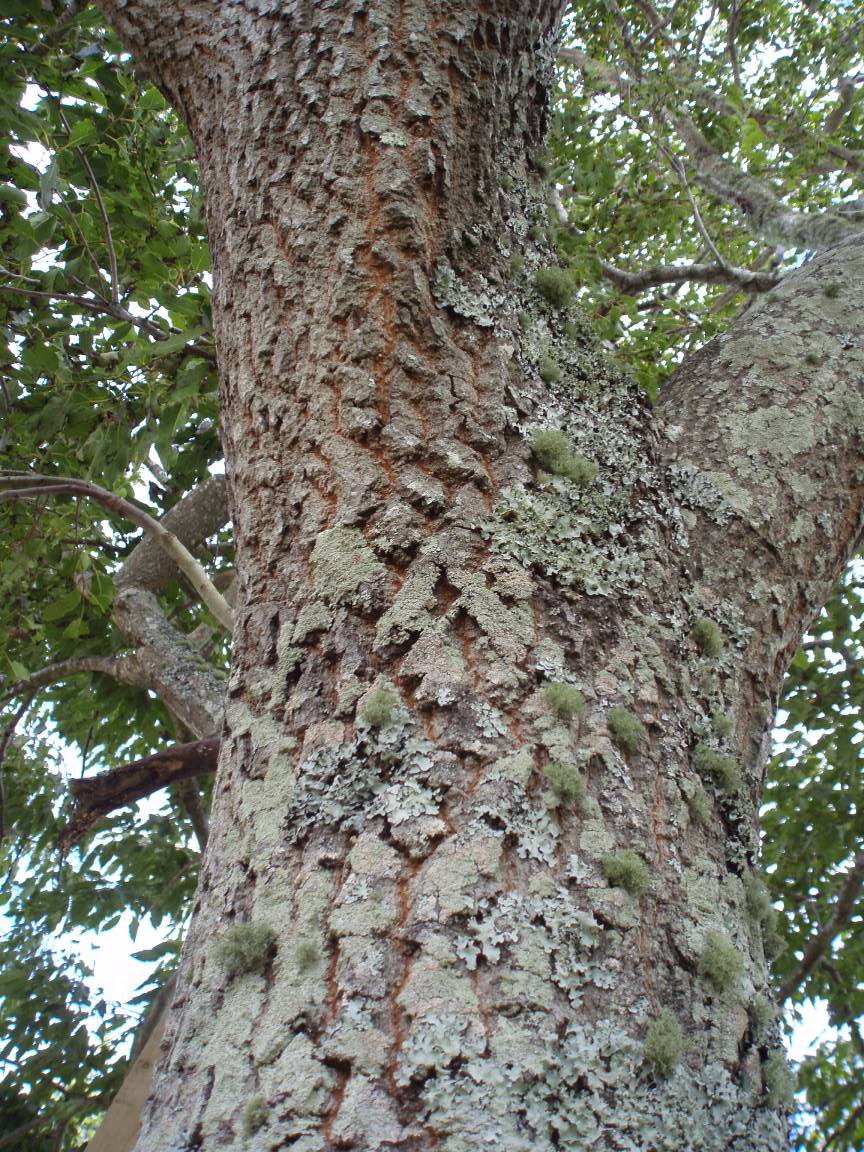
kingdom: Plantae
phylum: Tracheophyta
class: Magnoliopsida
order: Ericales
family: Ebenaceae
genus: Diospyros
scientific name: Diospyros virginiana
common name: Persimmon
